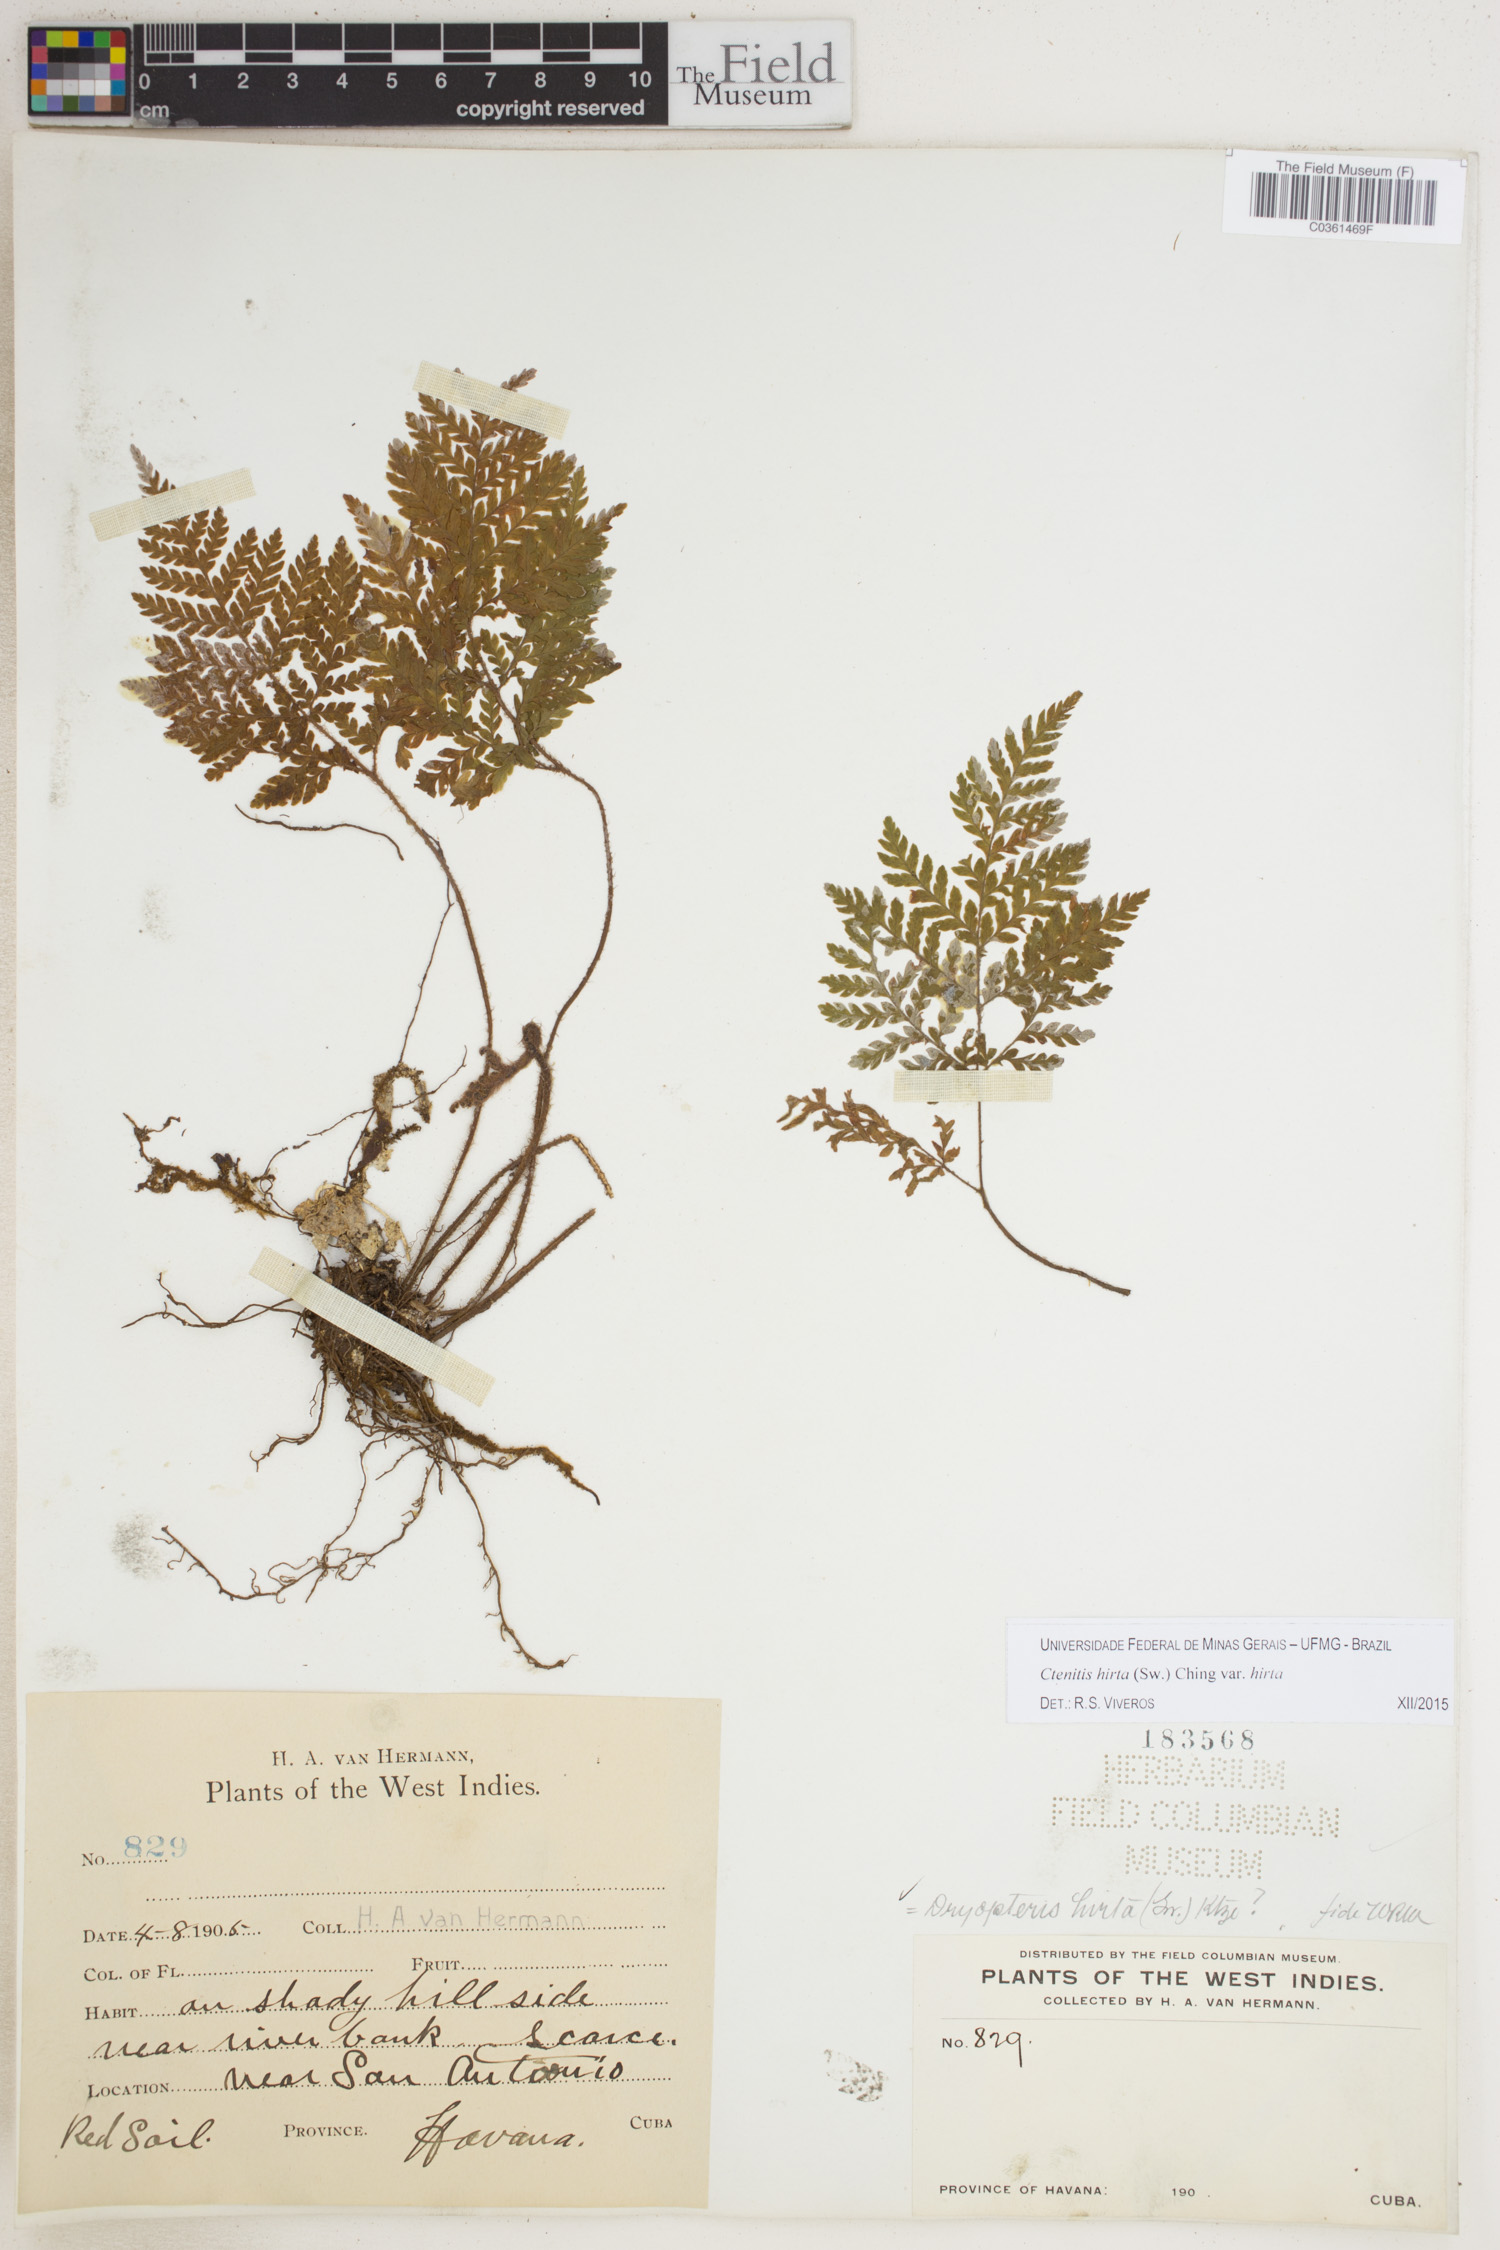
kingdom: Plantae
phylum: Tracheophyta
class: Polypodiopsida
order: Polypodiales
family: Dryopteridaceae
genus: Ctenitis
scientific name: Ctenitis hirta
